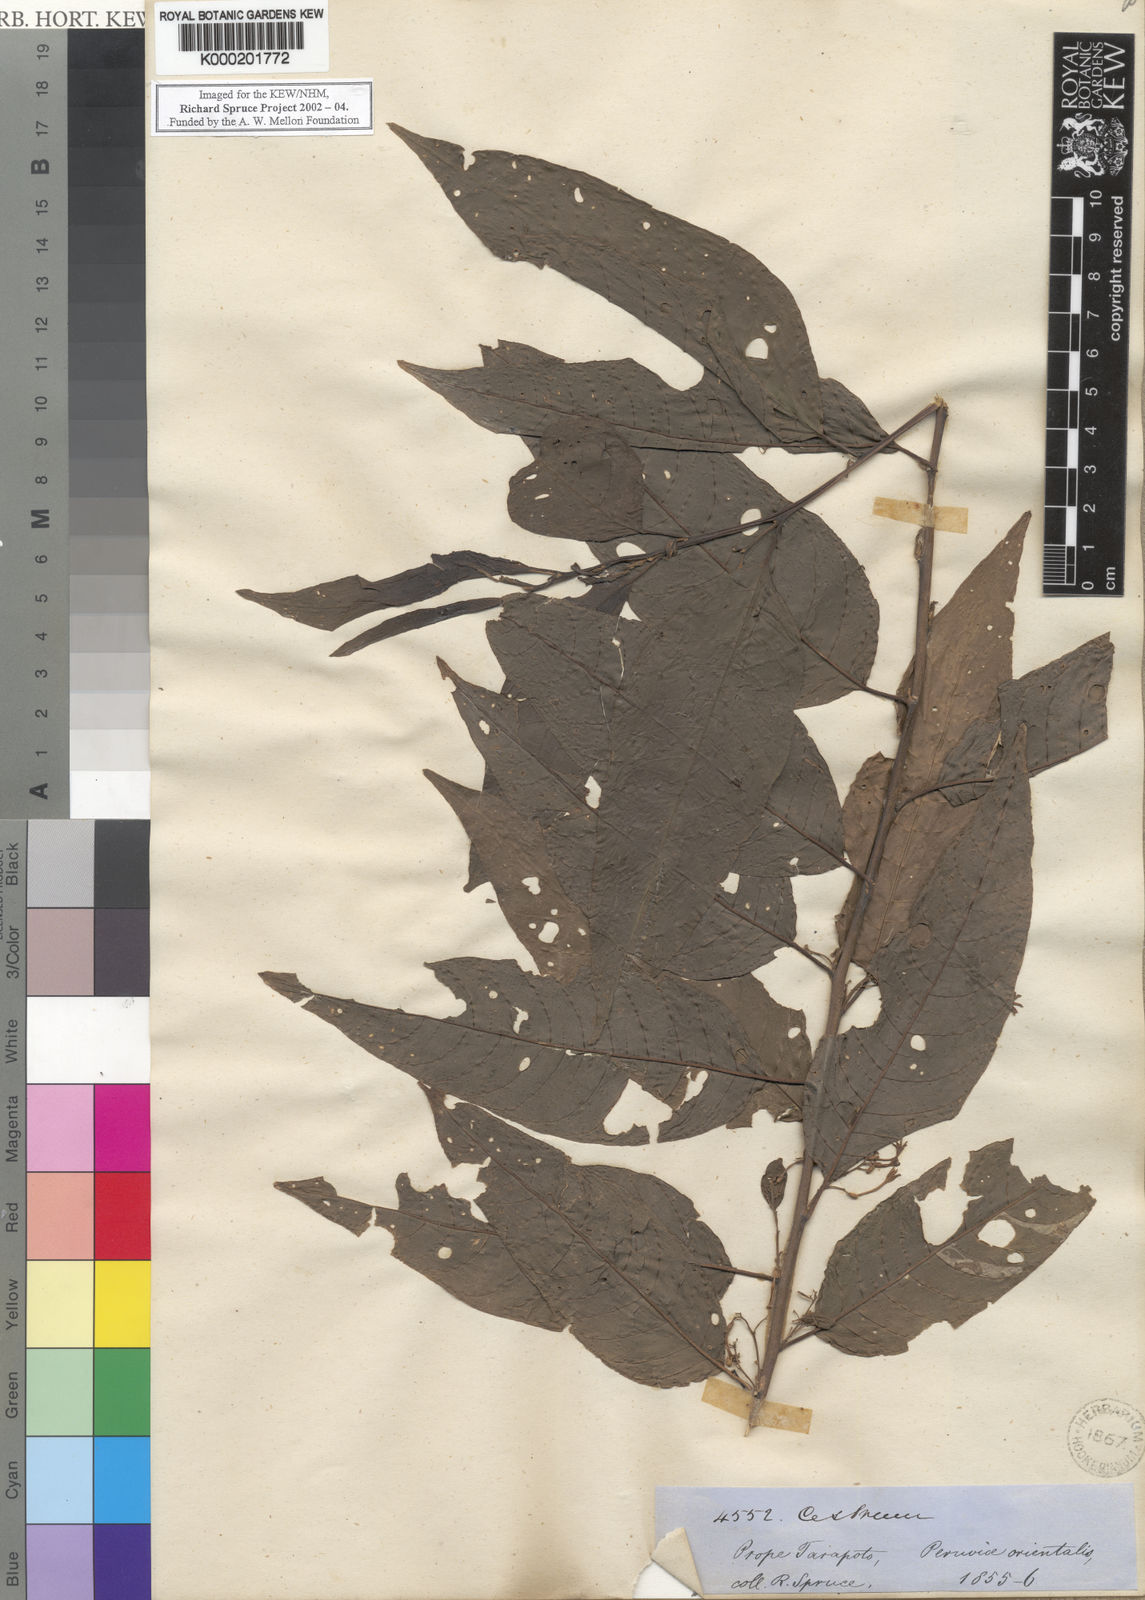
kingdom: Plantae
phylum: Tracheophyta
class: Magnoliopsida
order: Solanales
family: Solanaceae
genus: Cestrum
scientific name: Cestrum racemosum
